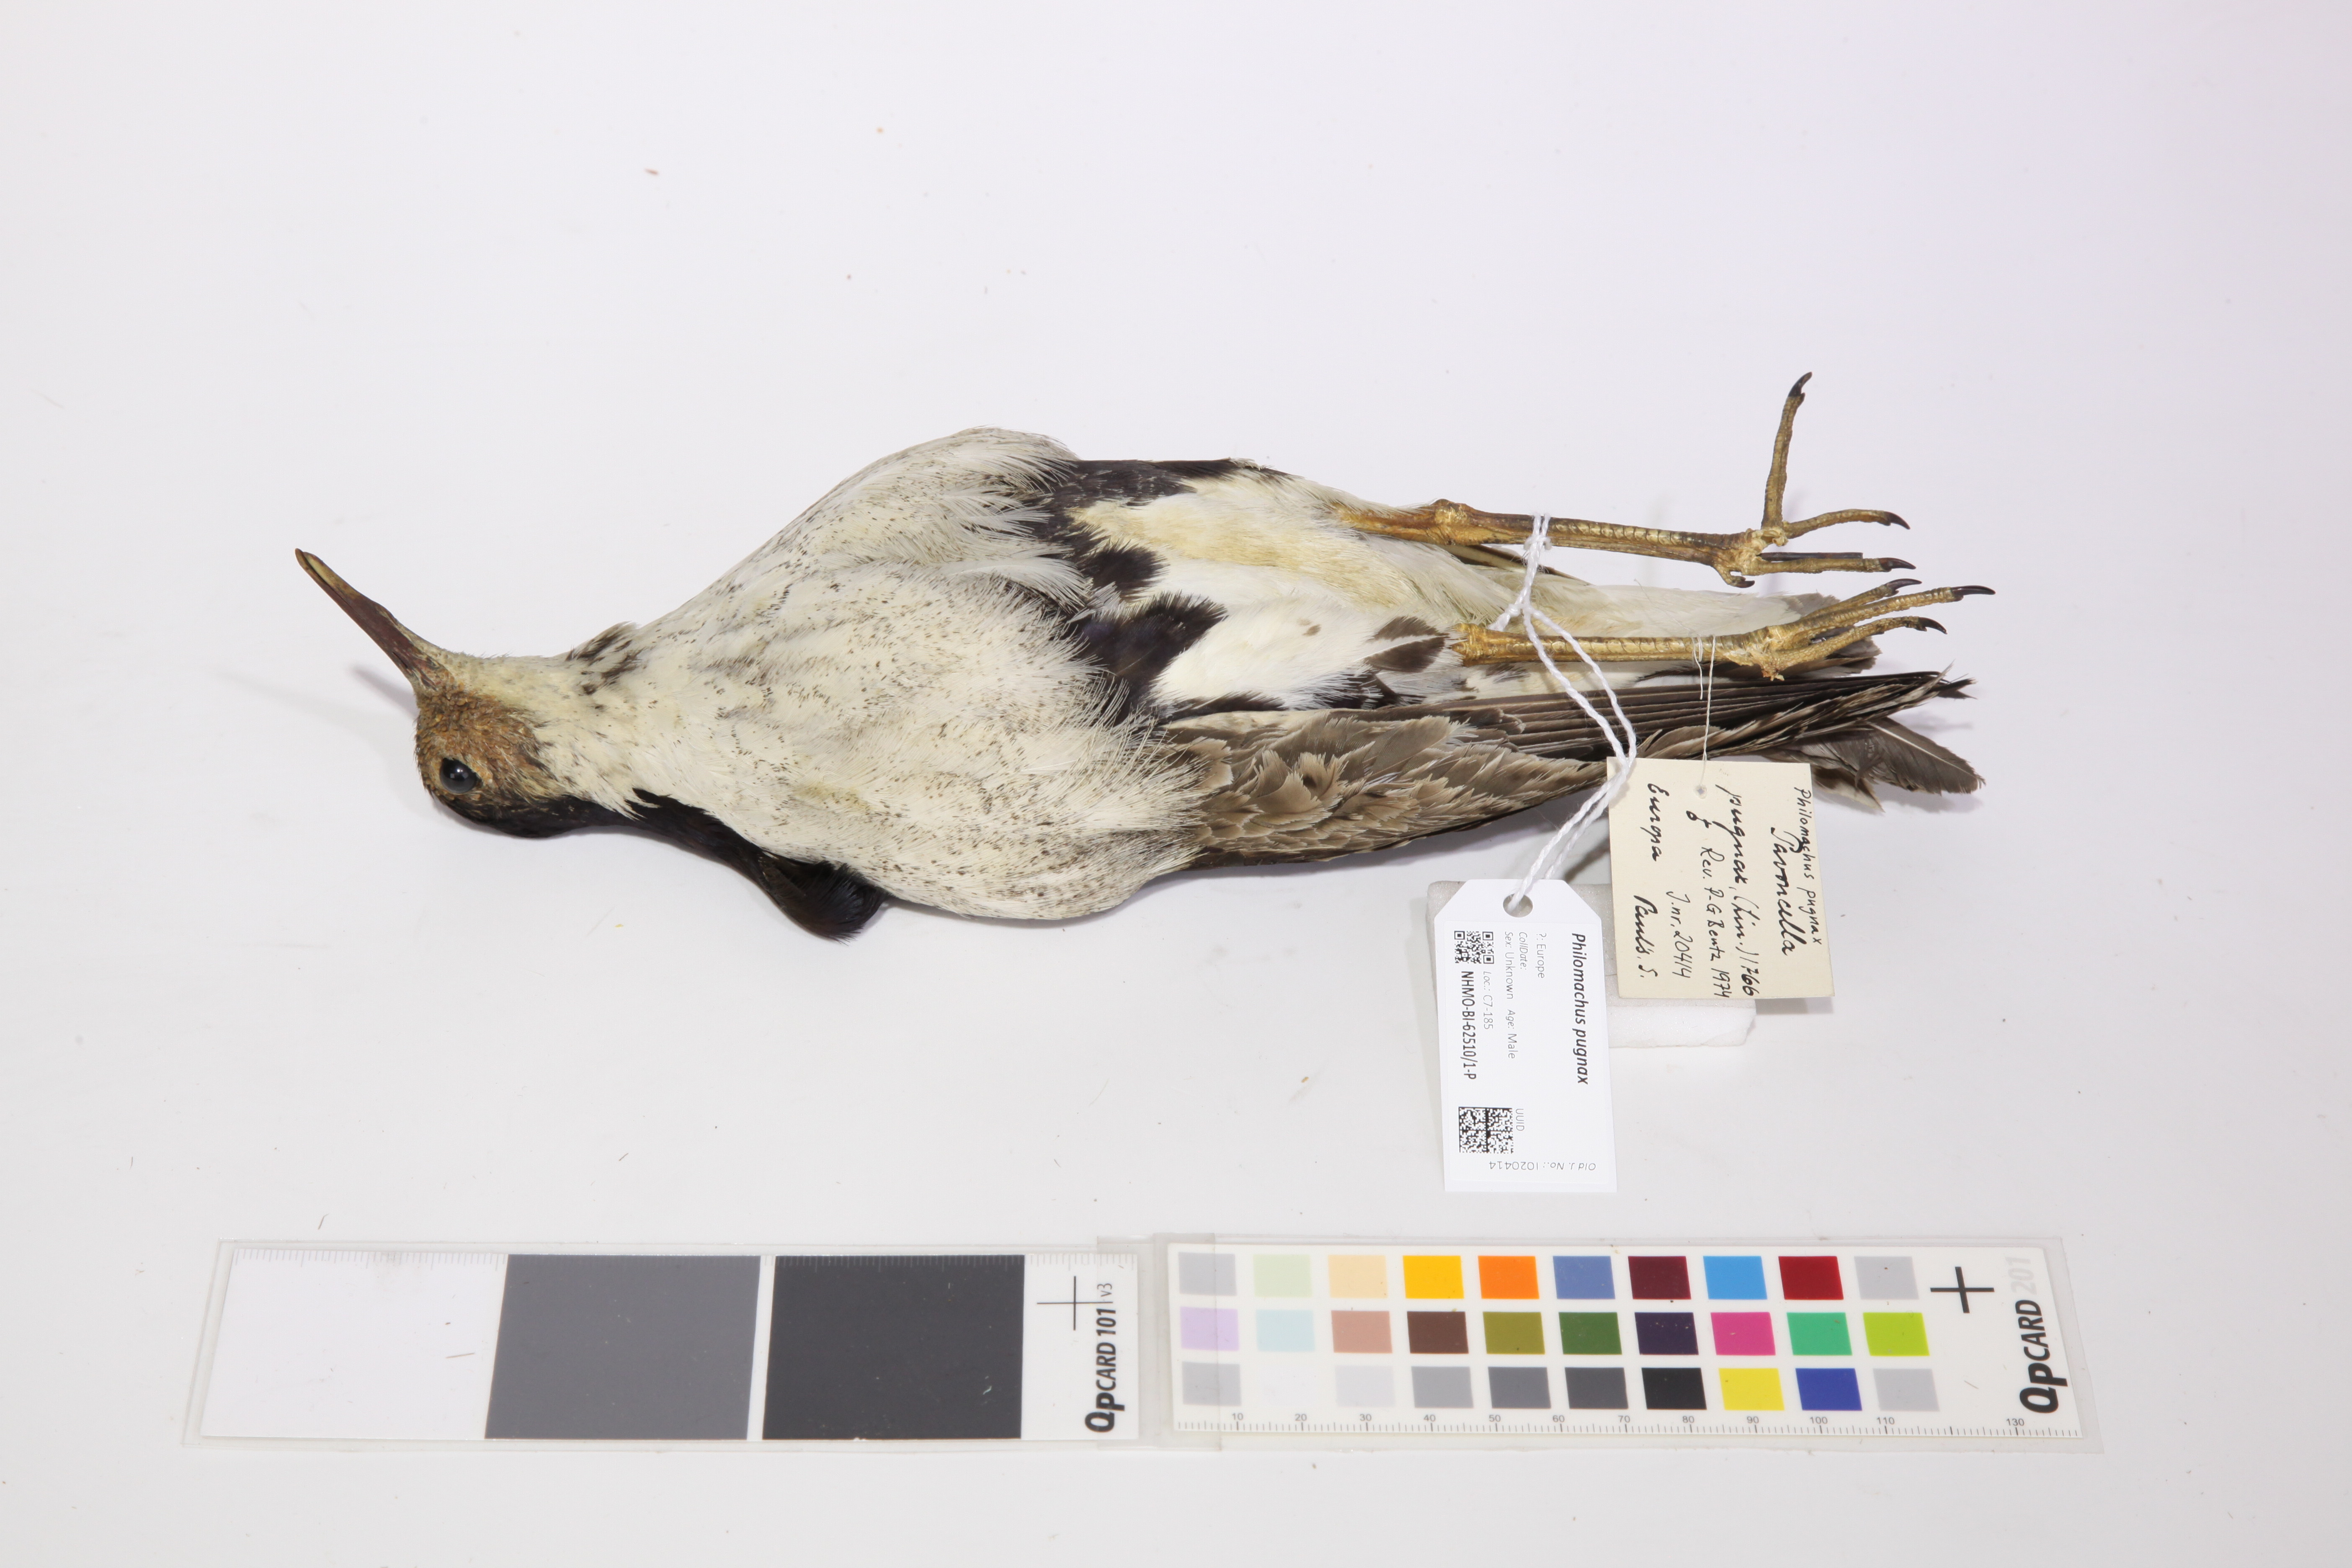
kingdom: Animalia
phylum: Chordata
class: Aves
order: Charadriiformes
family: Scolopacidae
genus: Calidris
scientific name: Calidris pugnax
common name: Ruff
